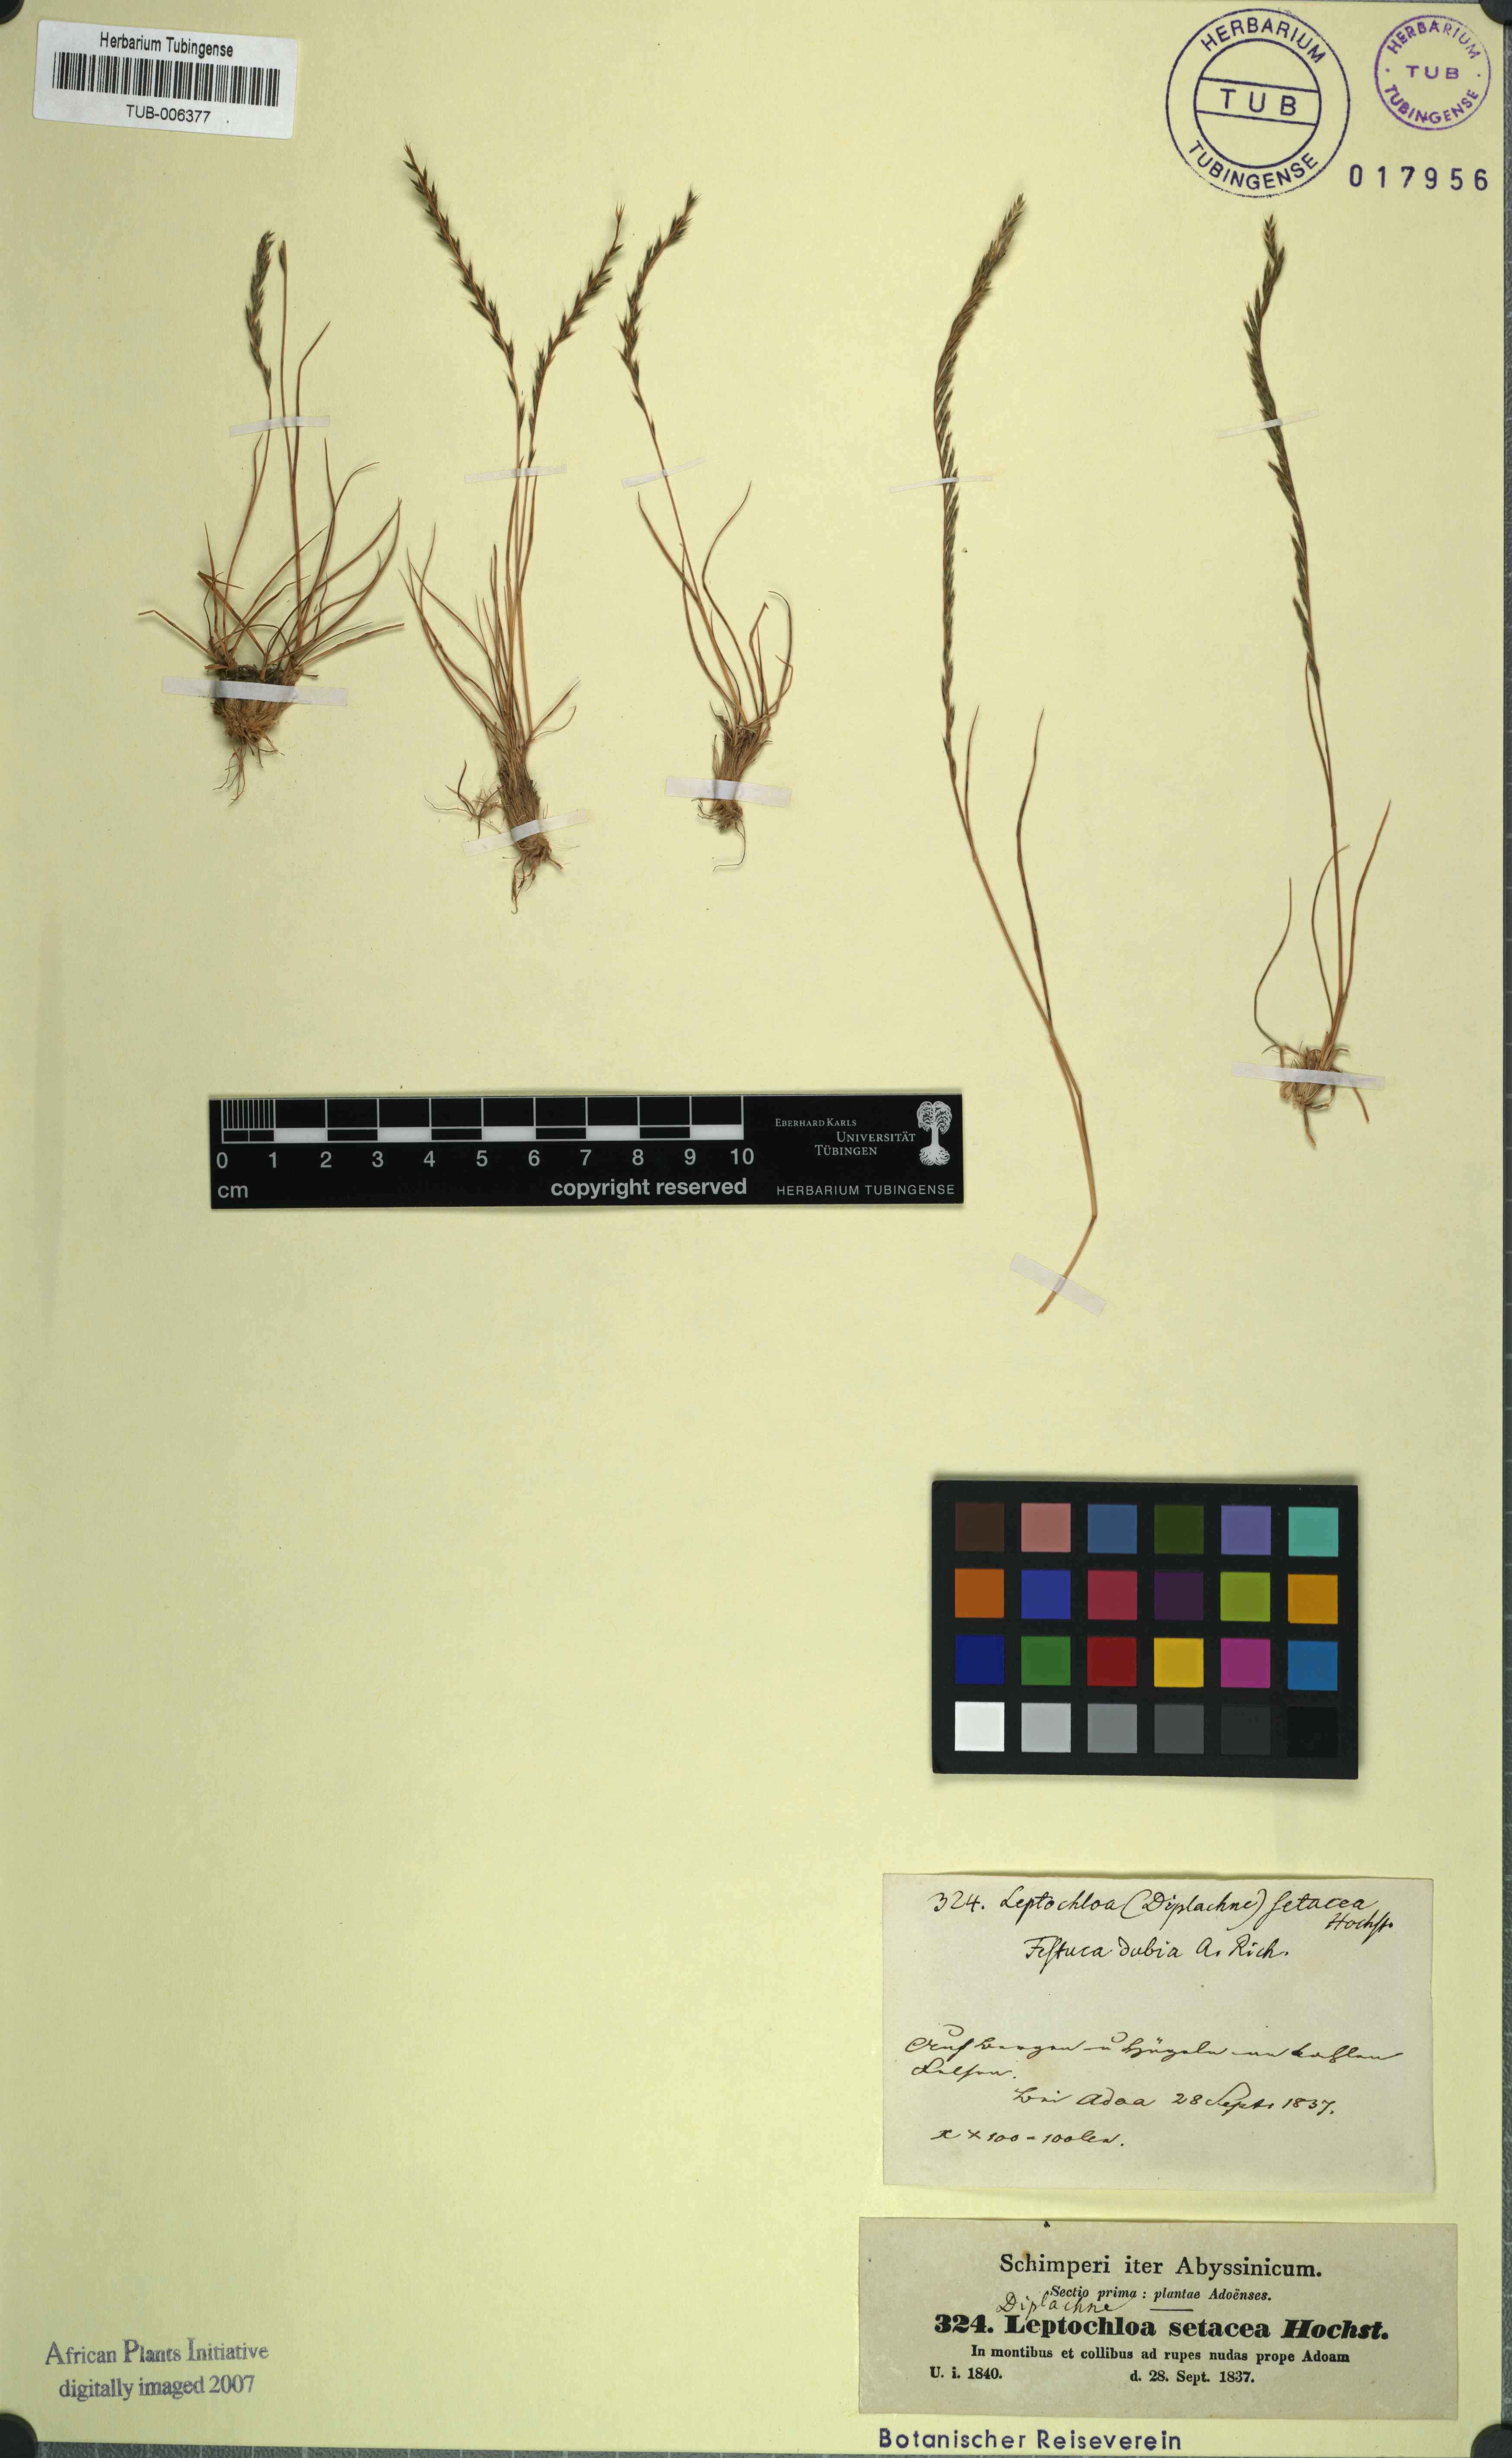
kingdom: Plantae
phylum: Tracheophyta
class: Liliopsida
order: Poales
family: Poaceae
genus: Tripogon
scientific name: Tripogon leptophyllus
